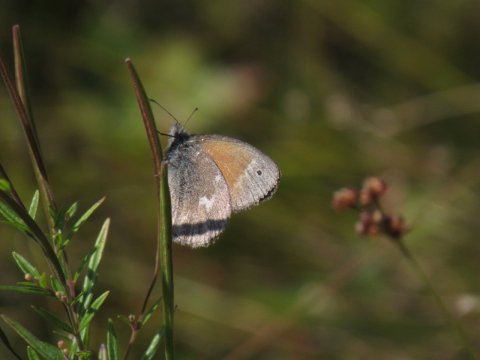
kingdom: Animalia
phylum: Arthropoda
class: Insecta
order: Lepidoptera
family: Nymphalidae
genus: Coenonympha
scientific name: Coenonympha tullia
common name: Large Heath
